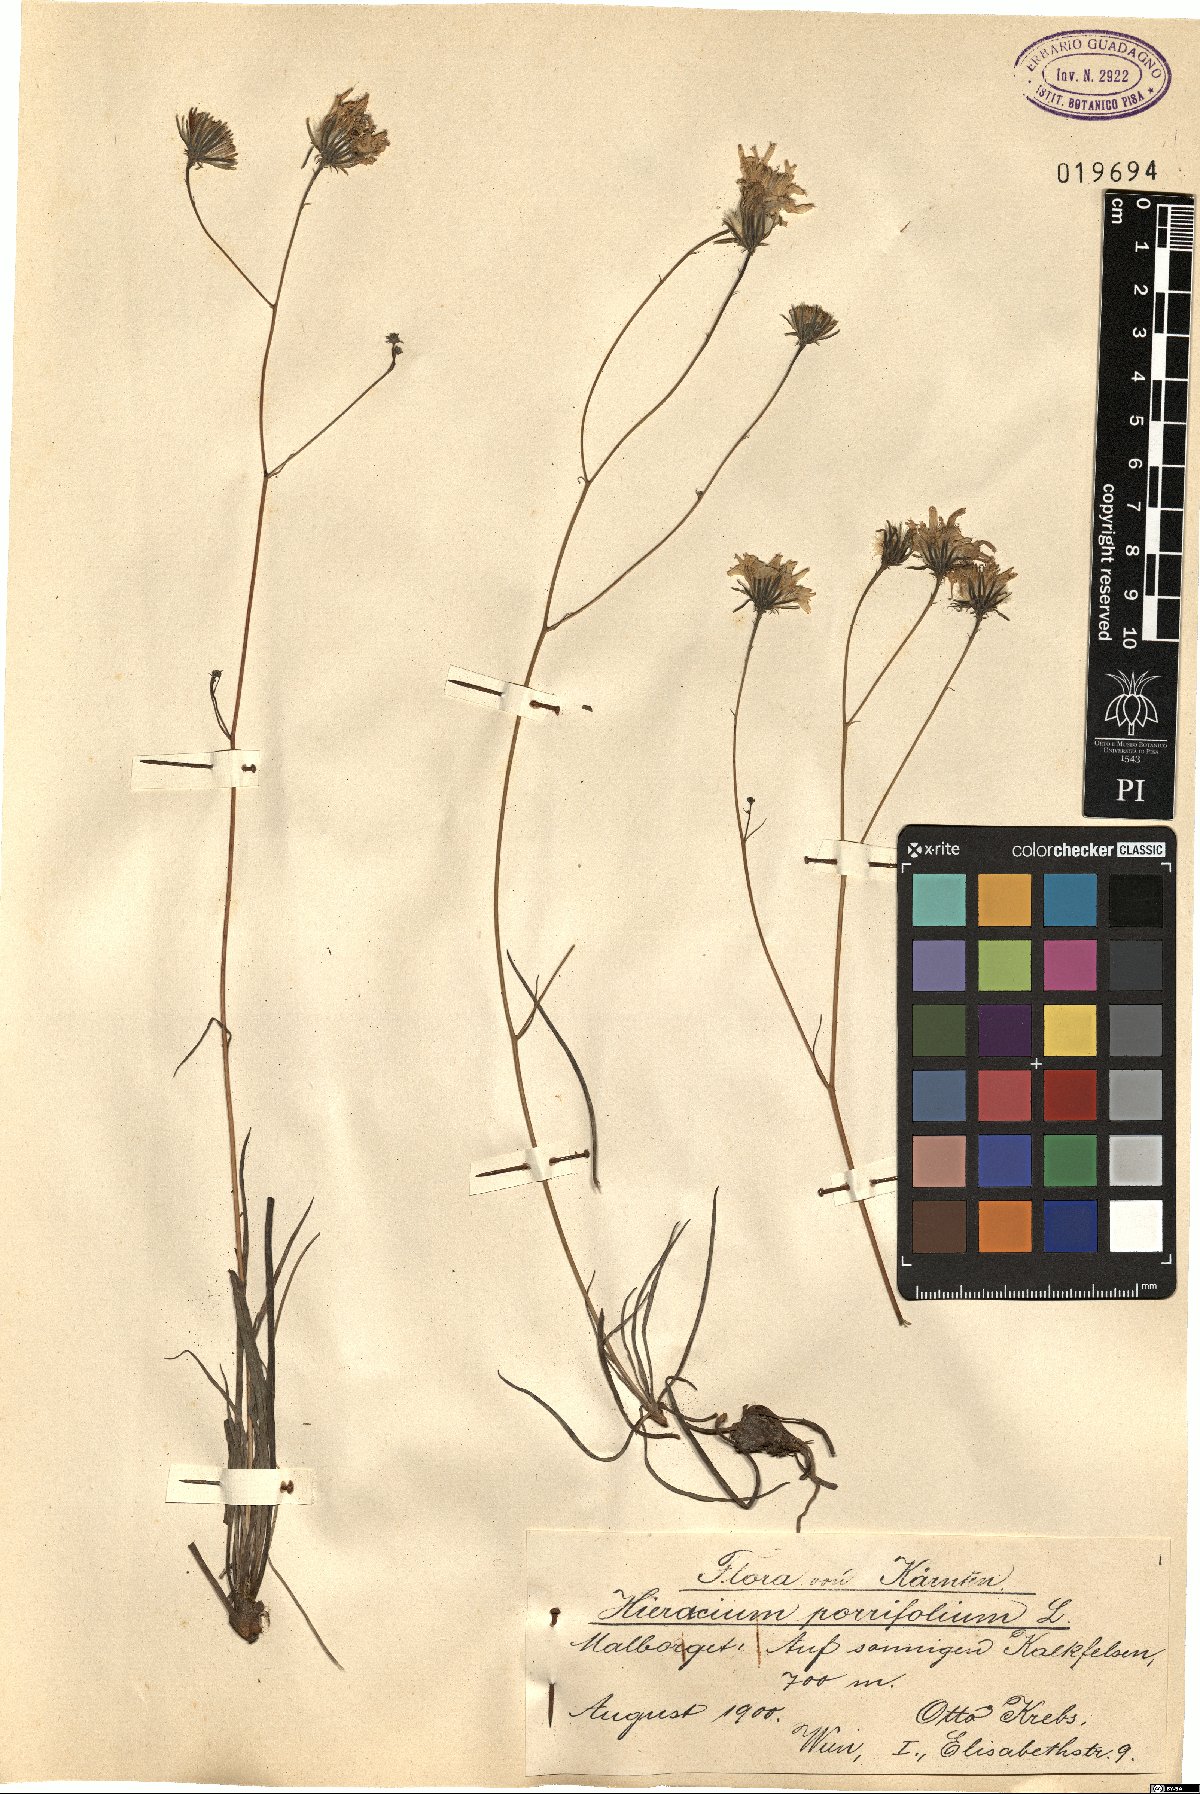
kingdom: Plantae
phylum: Tracheophyta
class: Magnoliopsida
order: Asterales
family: Asteraceae
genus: Hieracium
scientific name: Hieracium porrifolium
